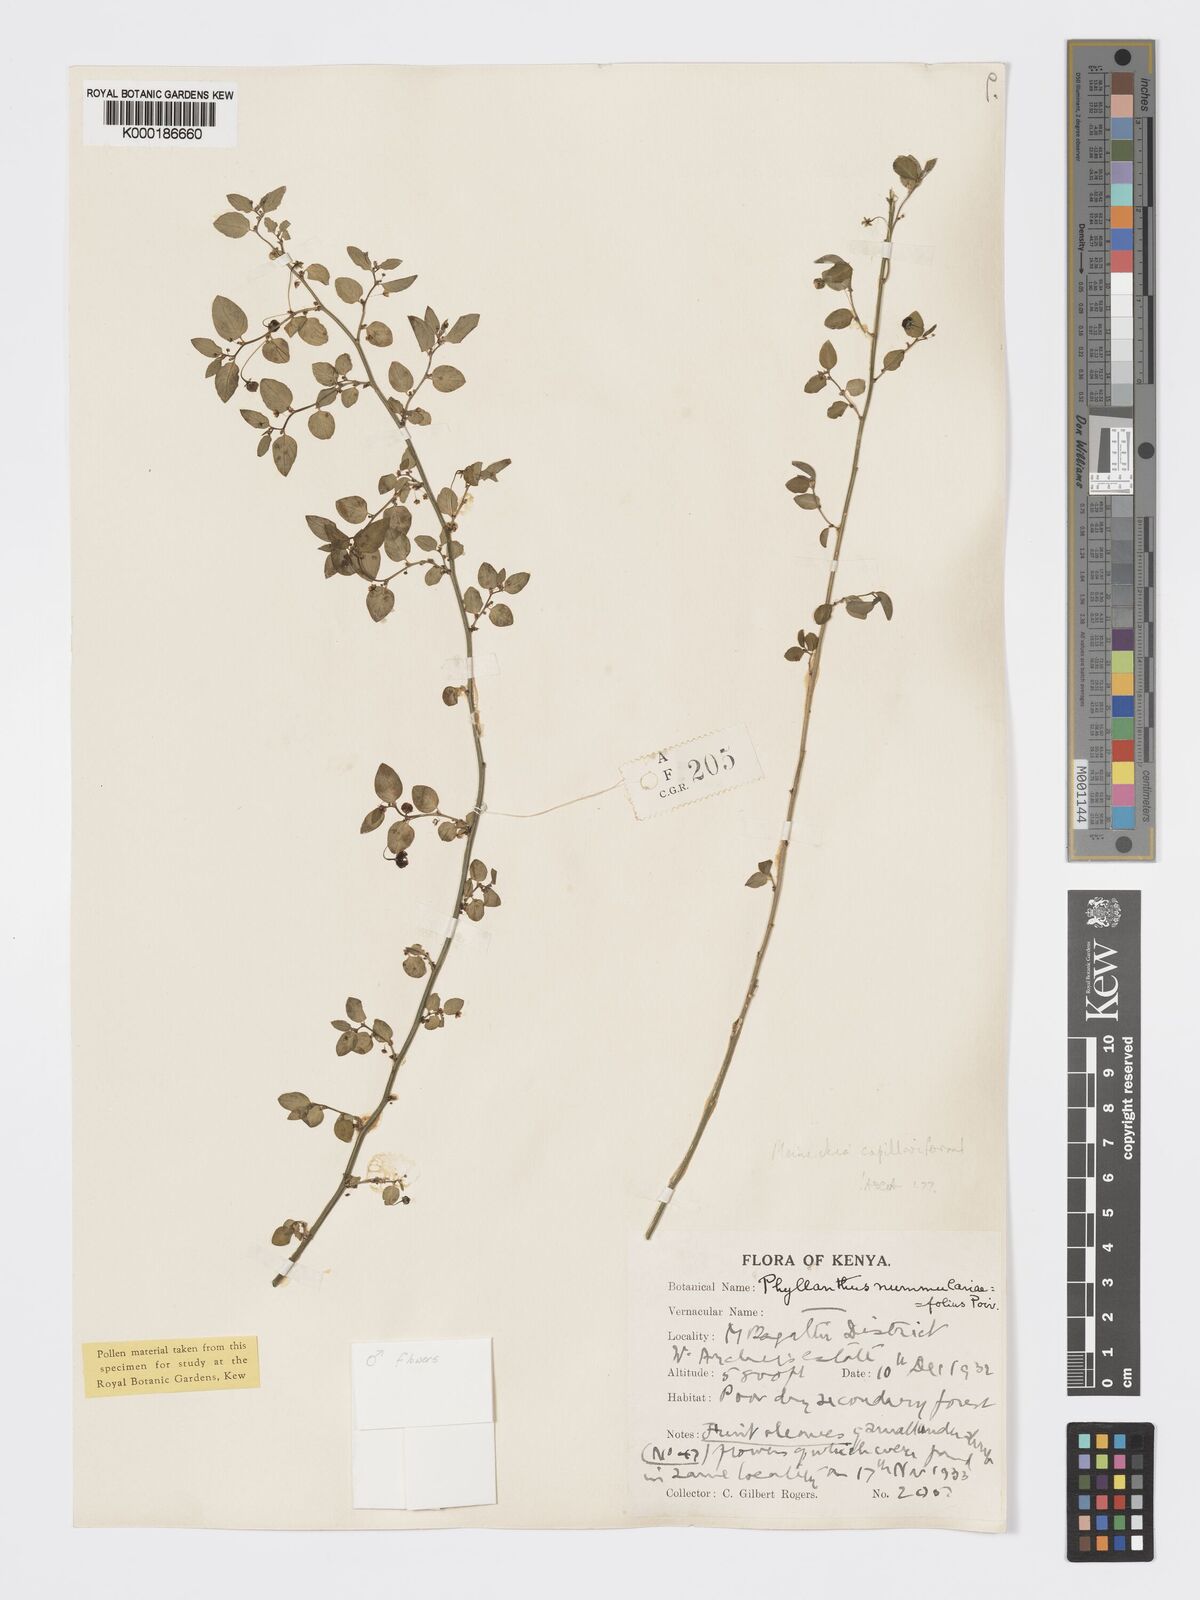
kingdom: Plantae
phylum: Tracheophyta
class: Magnoliopsida
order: Malpighiales
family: Phyllanthaceae
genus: Meineckia
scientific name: Meineckia phyllanthoides
